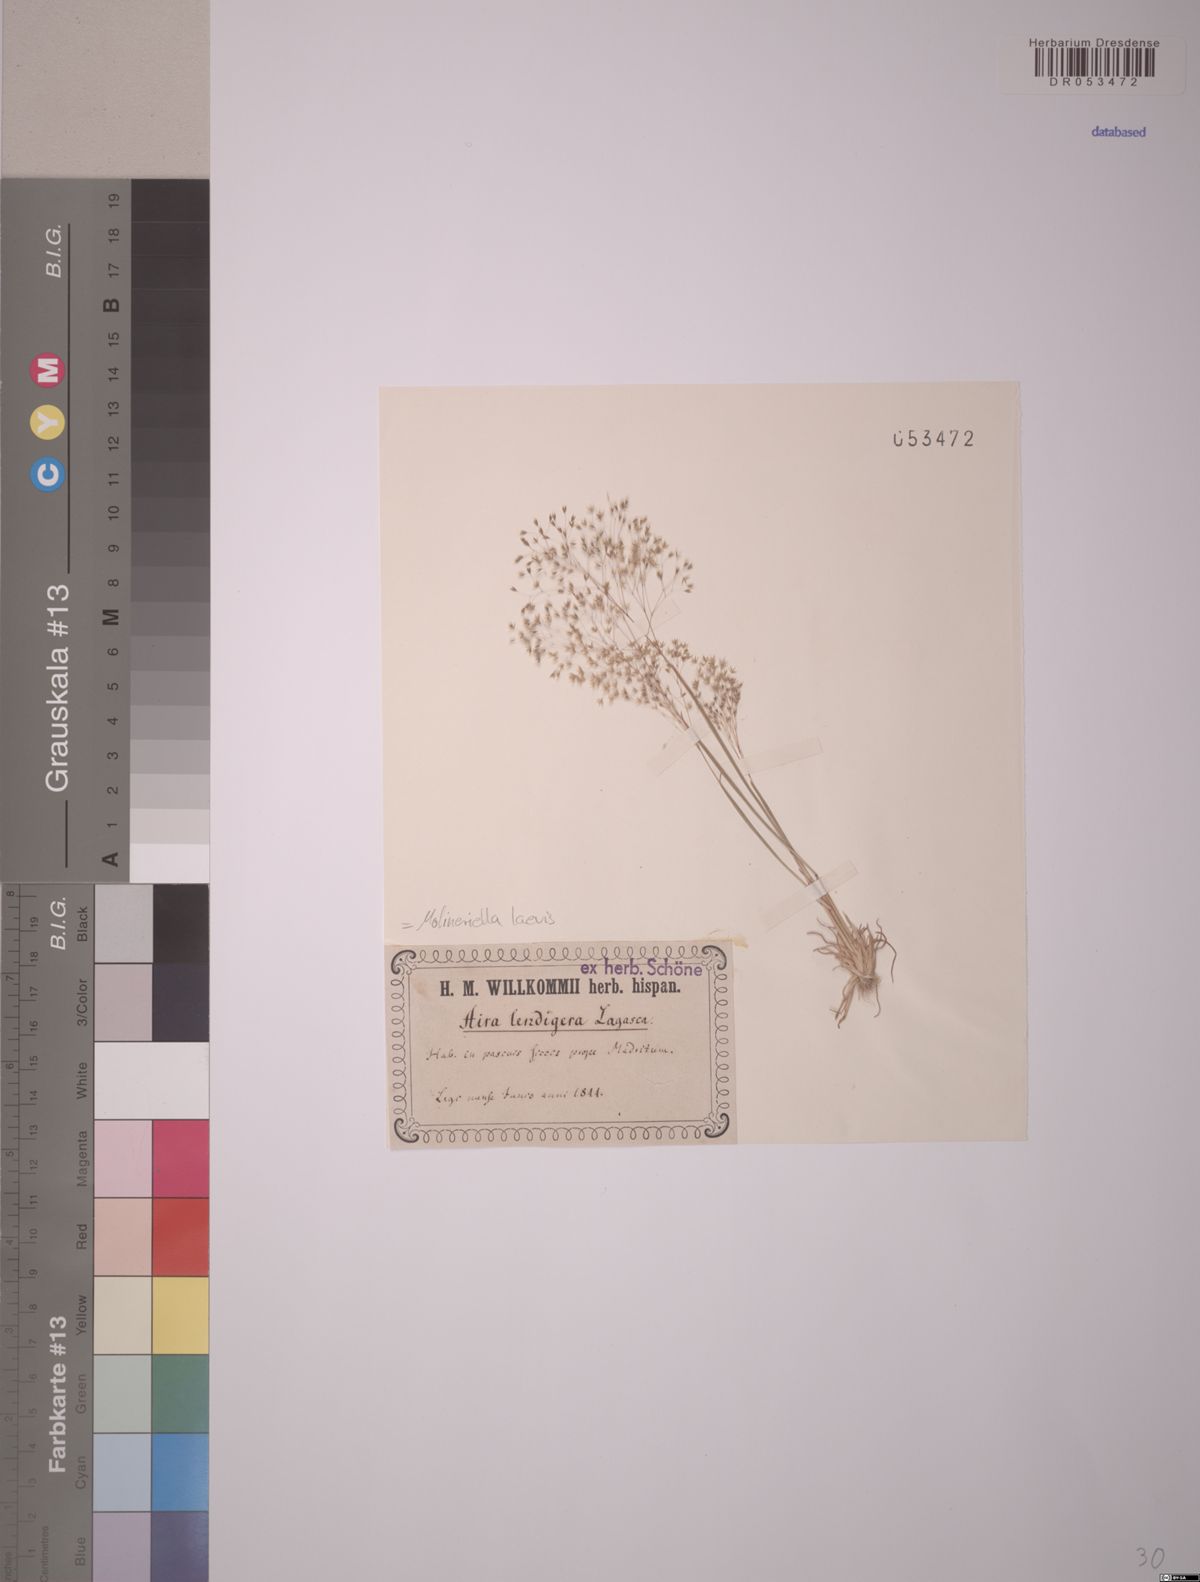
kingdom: Plantae
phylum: Tracheophyta
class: Liliopsida
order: Poales
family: Poaceae
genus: Molineriella
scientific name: Molineriella laevis
